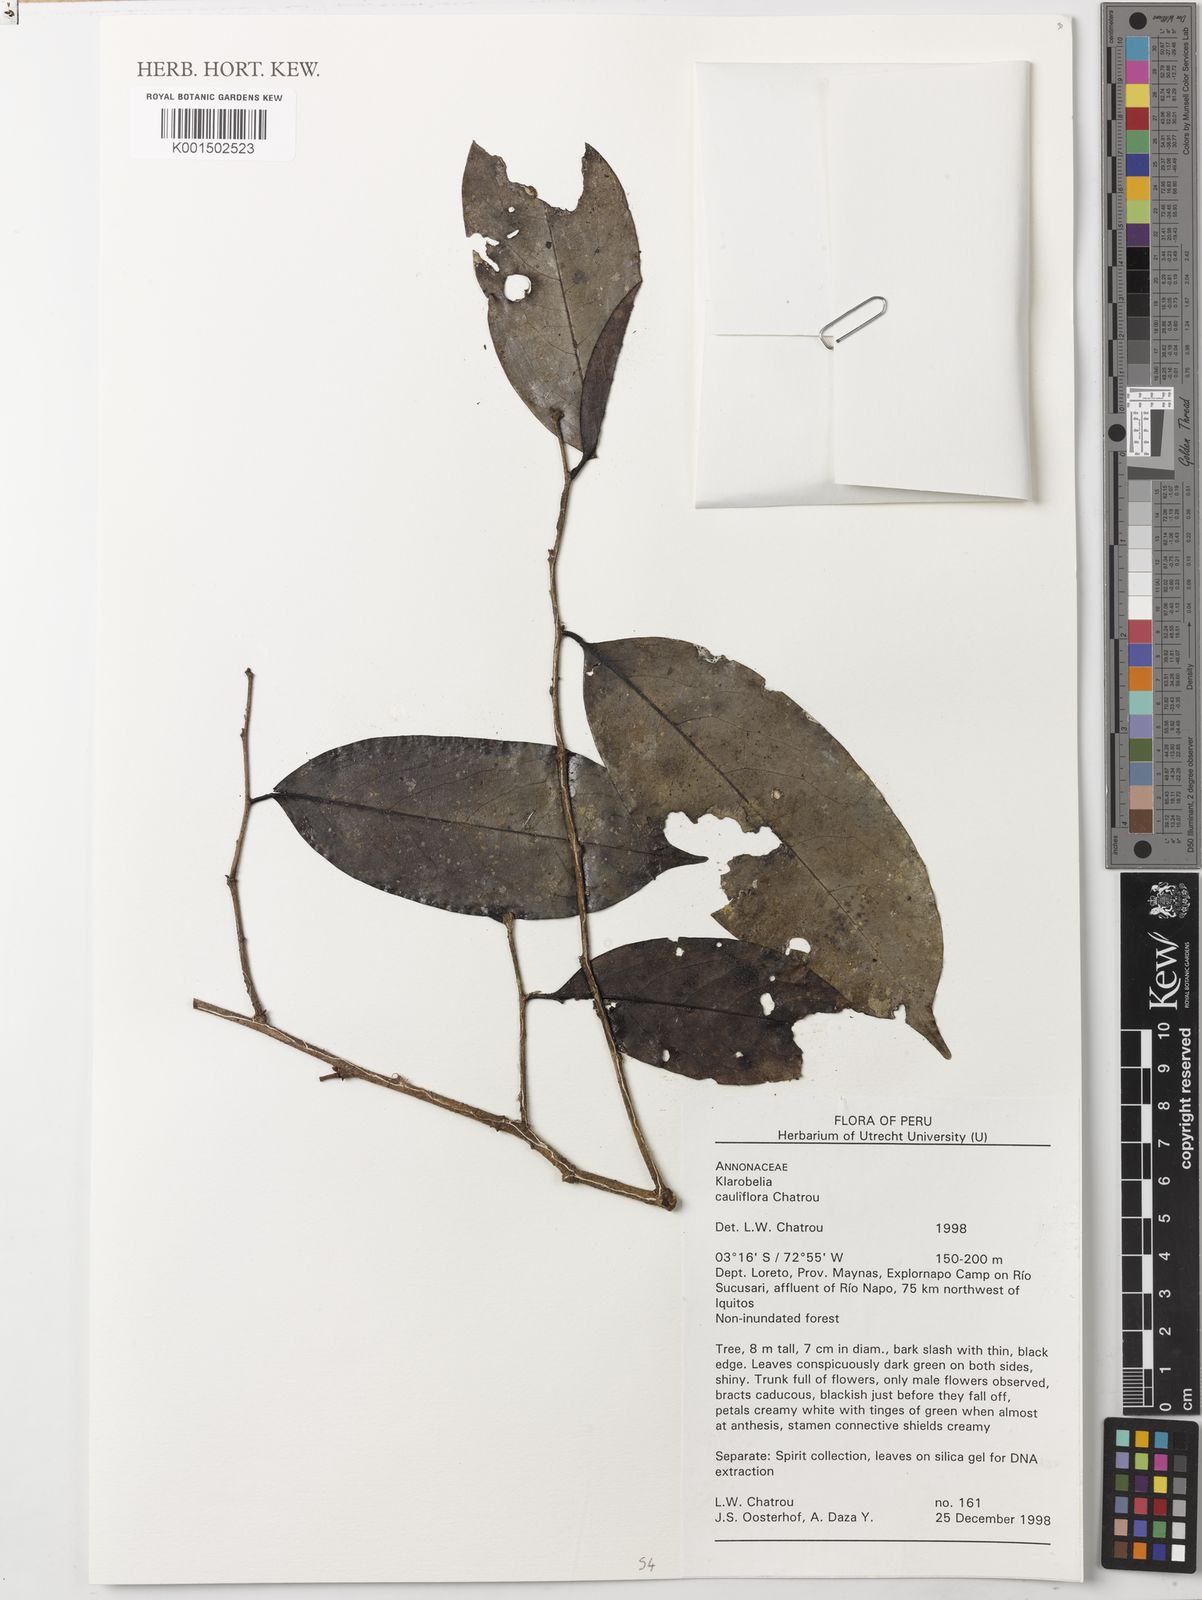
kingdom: Plantae
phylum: Tracheophyta
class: Magnoliopsida
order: Magnoliales
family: Annonaceae
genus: Klarobelia
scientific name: Klarobelia cauliflora
